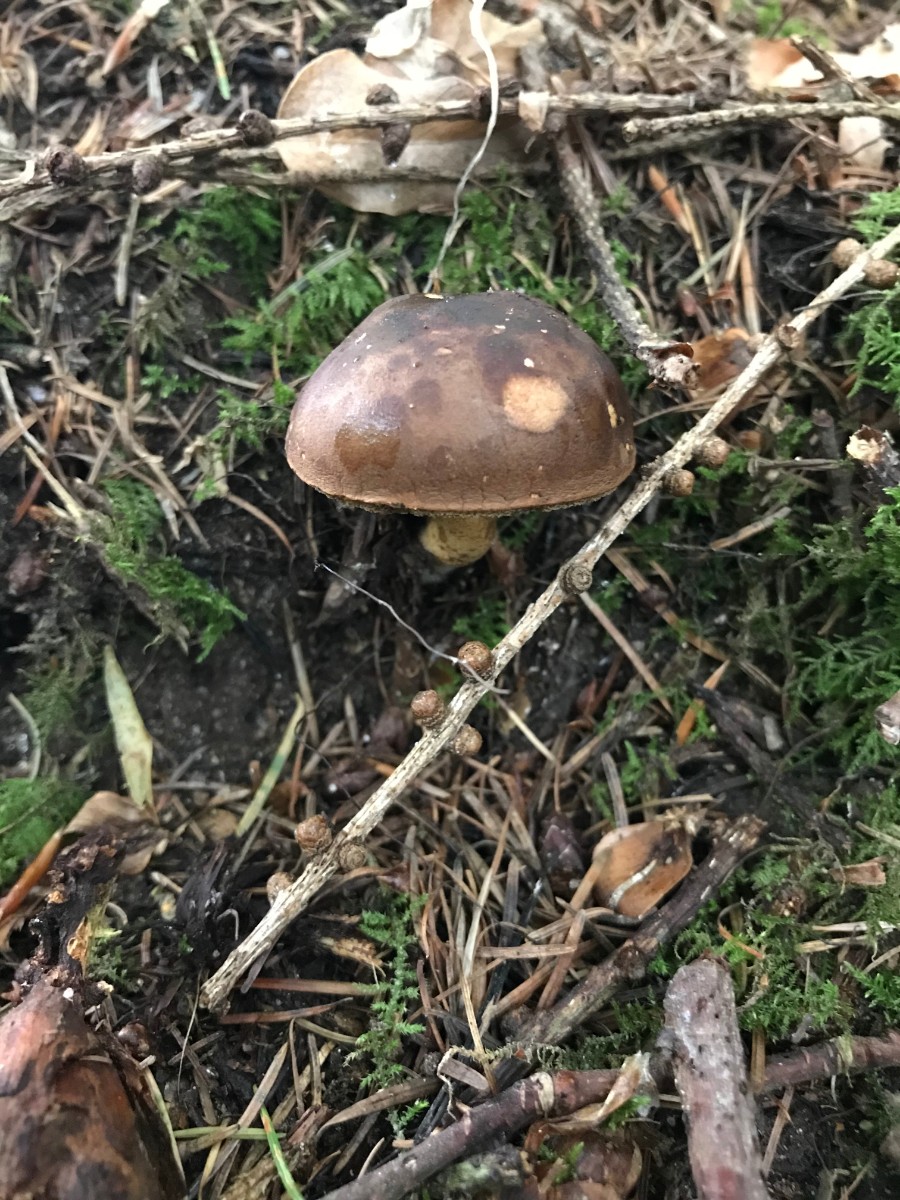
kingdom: Fungi
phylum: Basidiomycota
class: Agaricomycetes
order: Boletales
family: Boletaceae
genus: Imleria
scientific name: Imleria badia
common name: brunstokket rørhat
